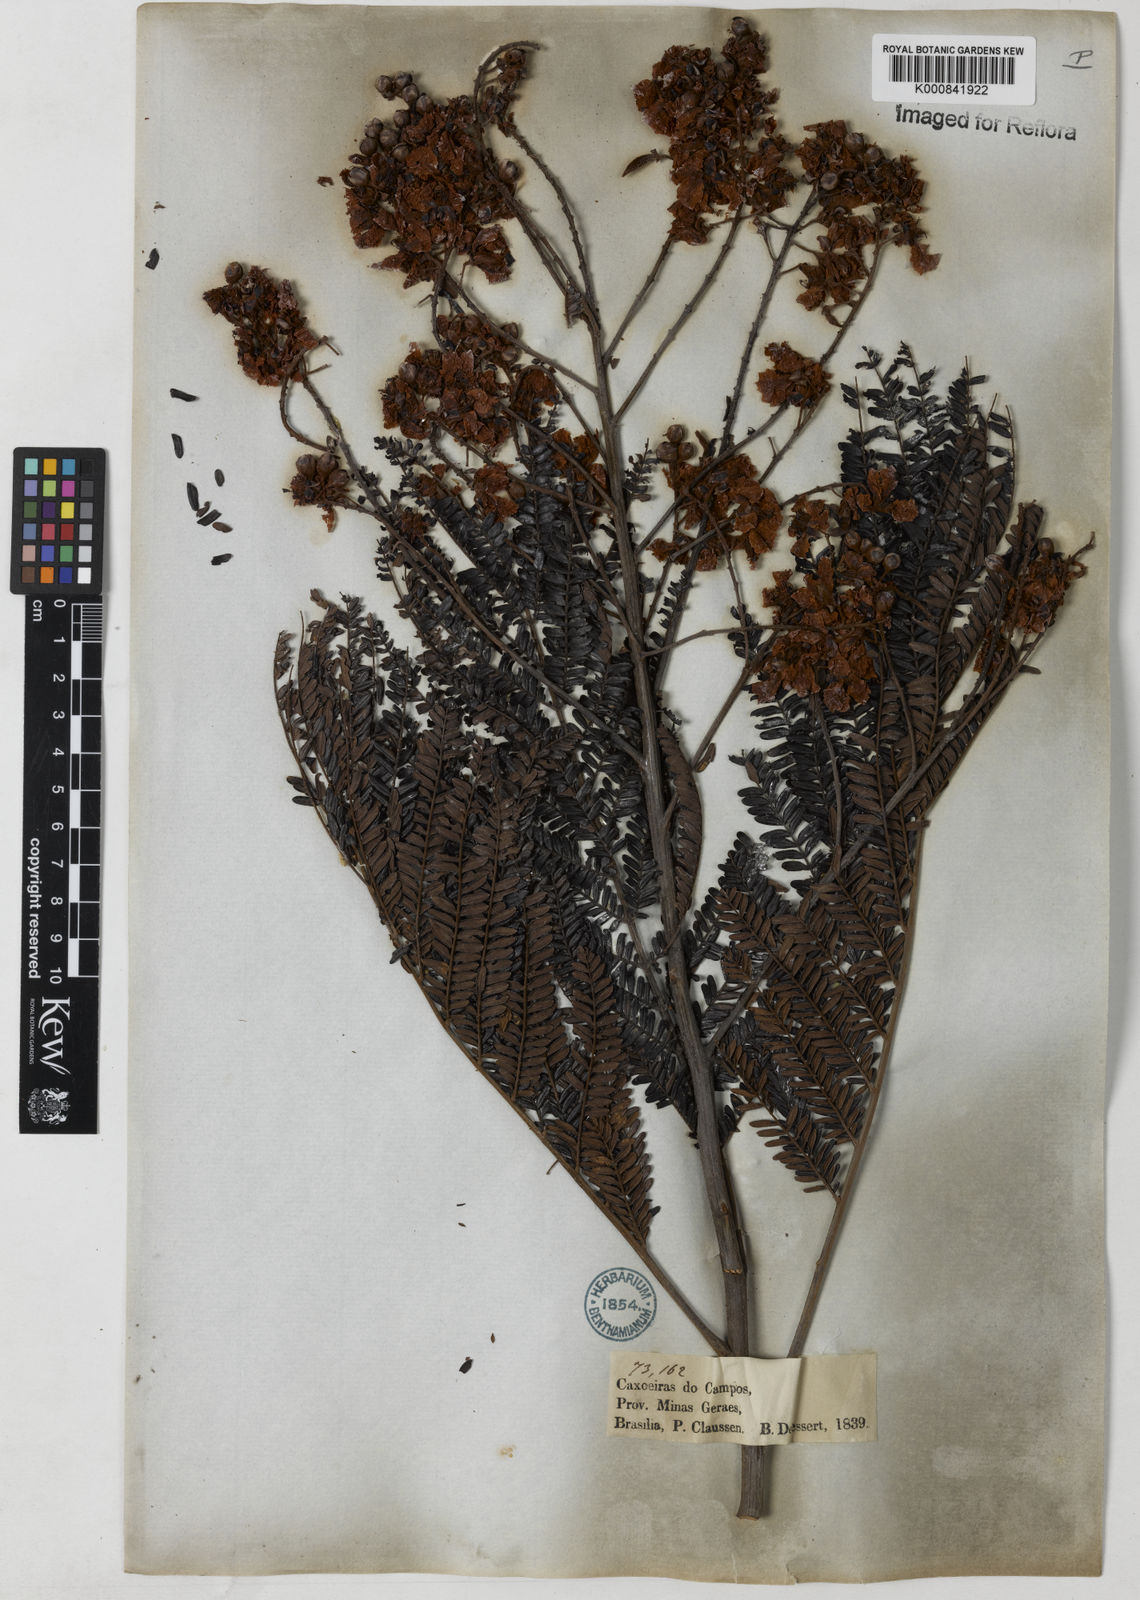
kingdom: Plantae
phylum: Tracheophyta
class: Magnoliopsida
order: Fabales
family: Fabaceae
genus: Peltophorum
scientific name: Peltophorum dubium
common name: Horsebush
